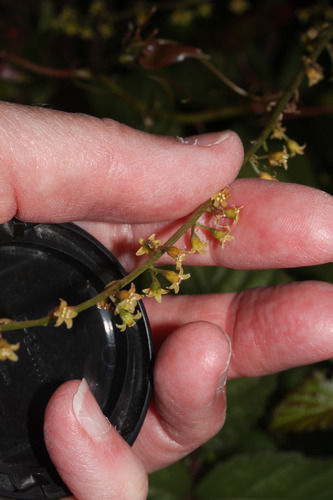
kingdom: Plantae
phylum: Tracheophyta
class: Liliopsida
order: Dioscoreales
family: Dioscoreaceae
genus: Dioscorea
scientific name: Dioscorea communis
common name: Black-bindweed
